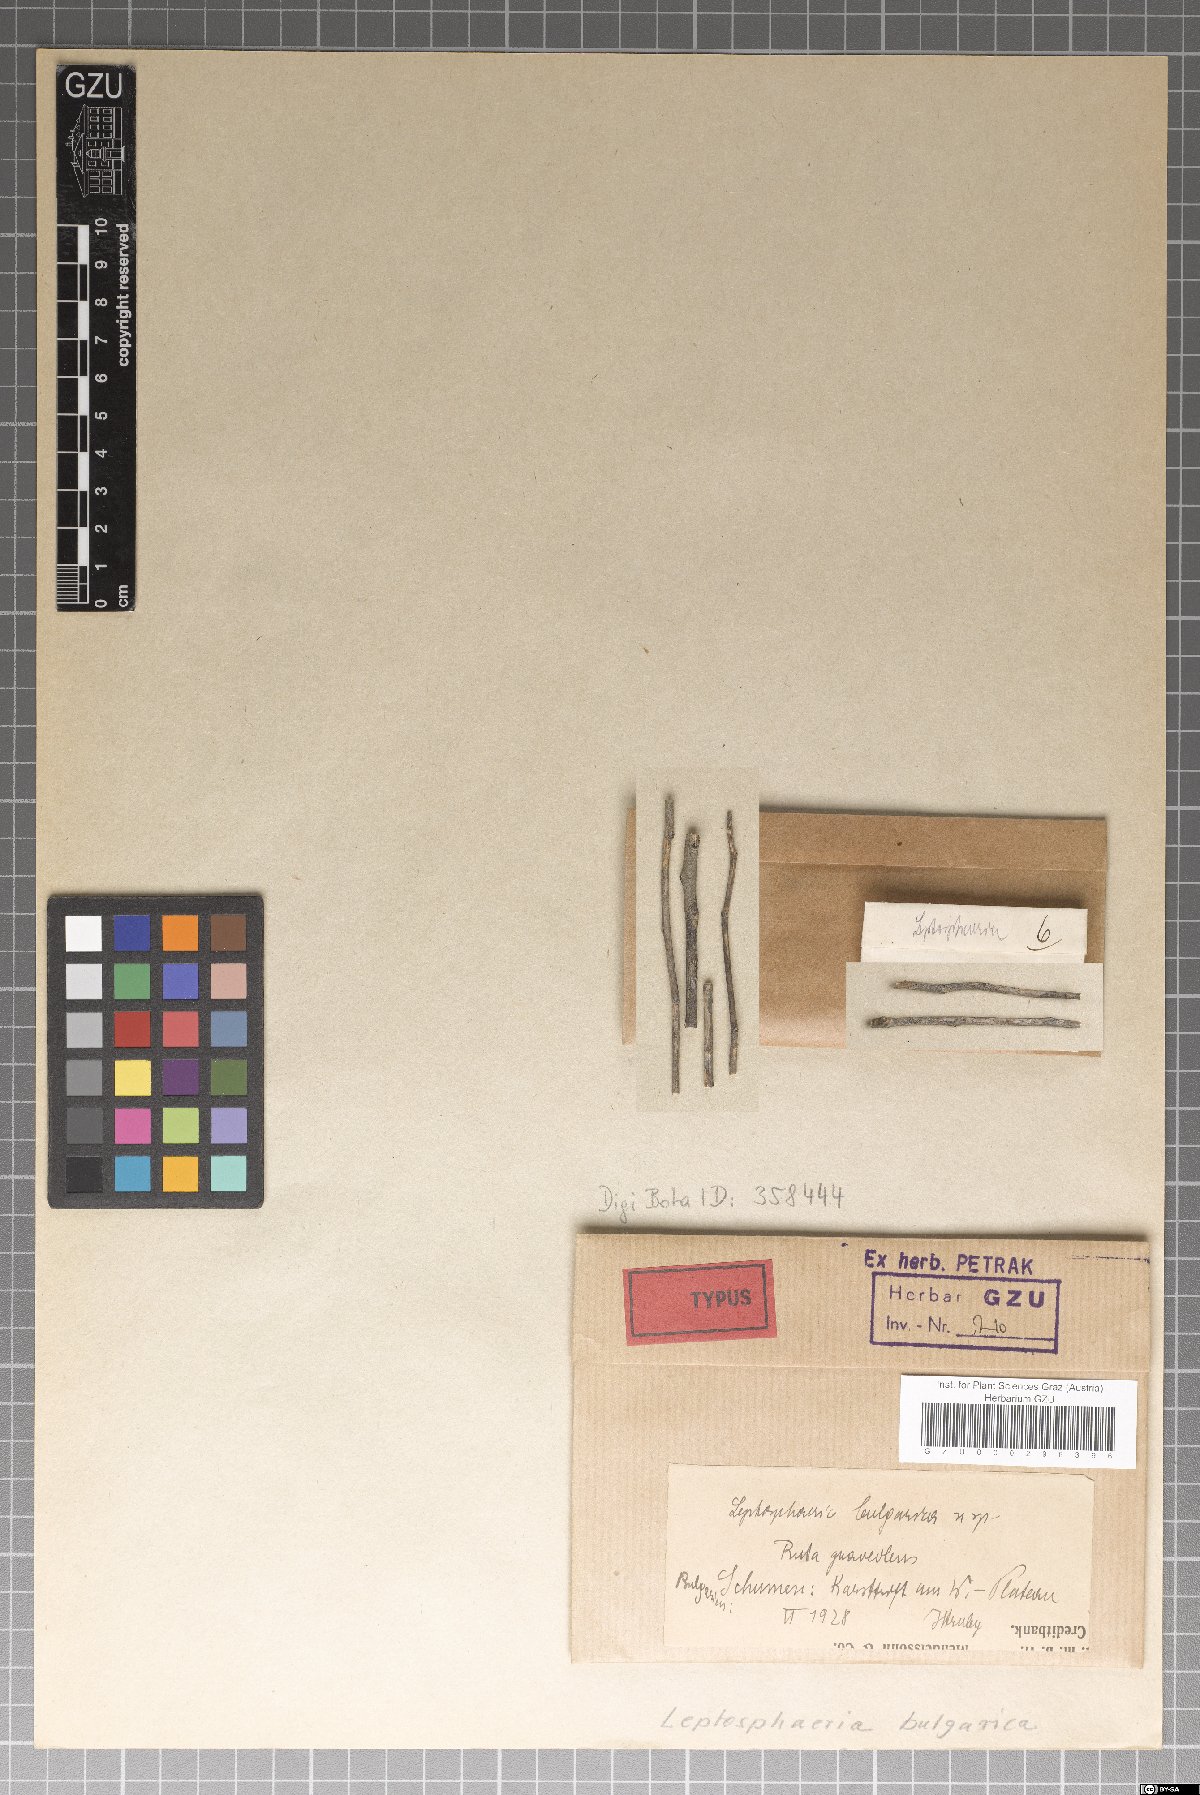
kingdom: Fungi
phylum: Ascomycota
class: Dothideomycetes
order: Pleosporales
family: Leptosphaeriaceae
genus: Leptosphaeria
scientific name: Leptosphaeria bulgarica
